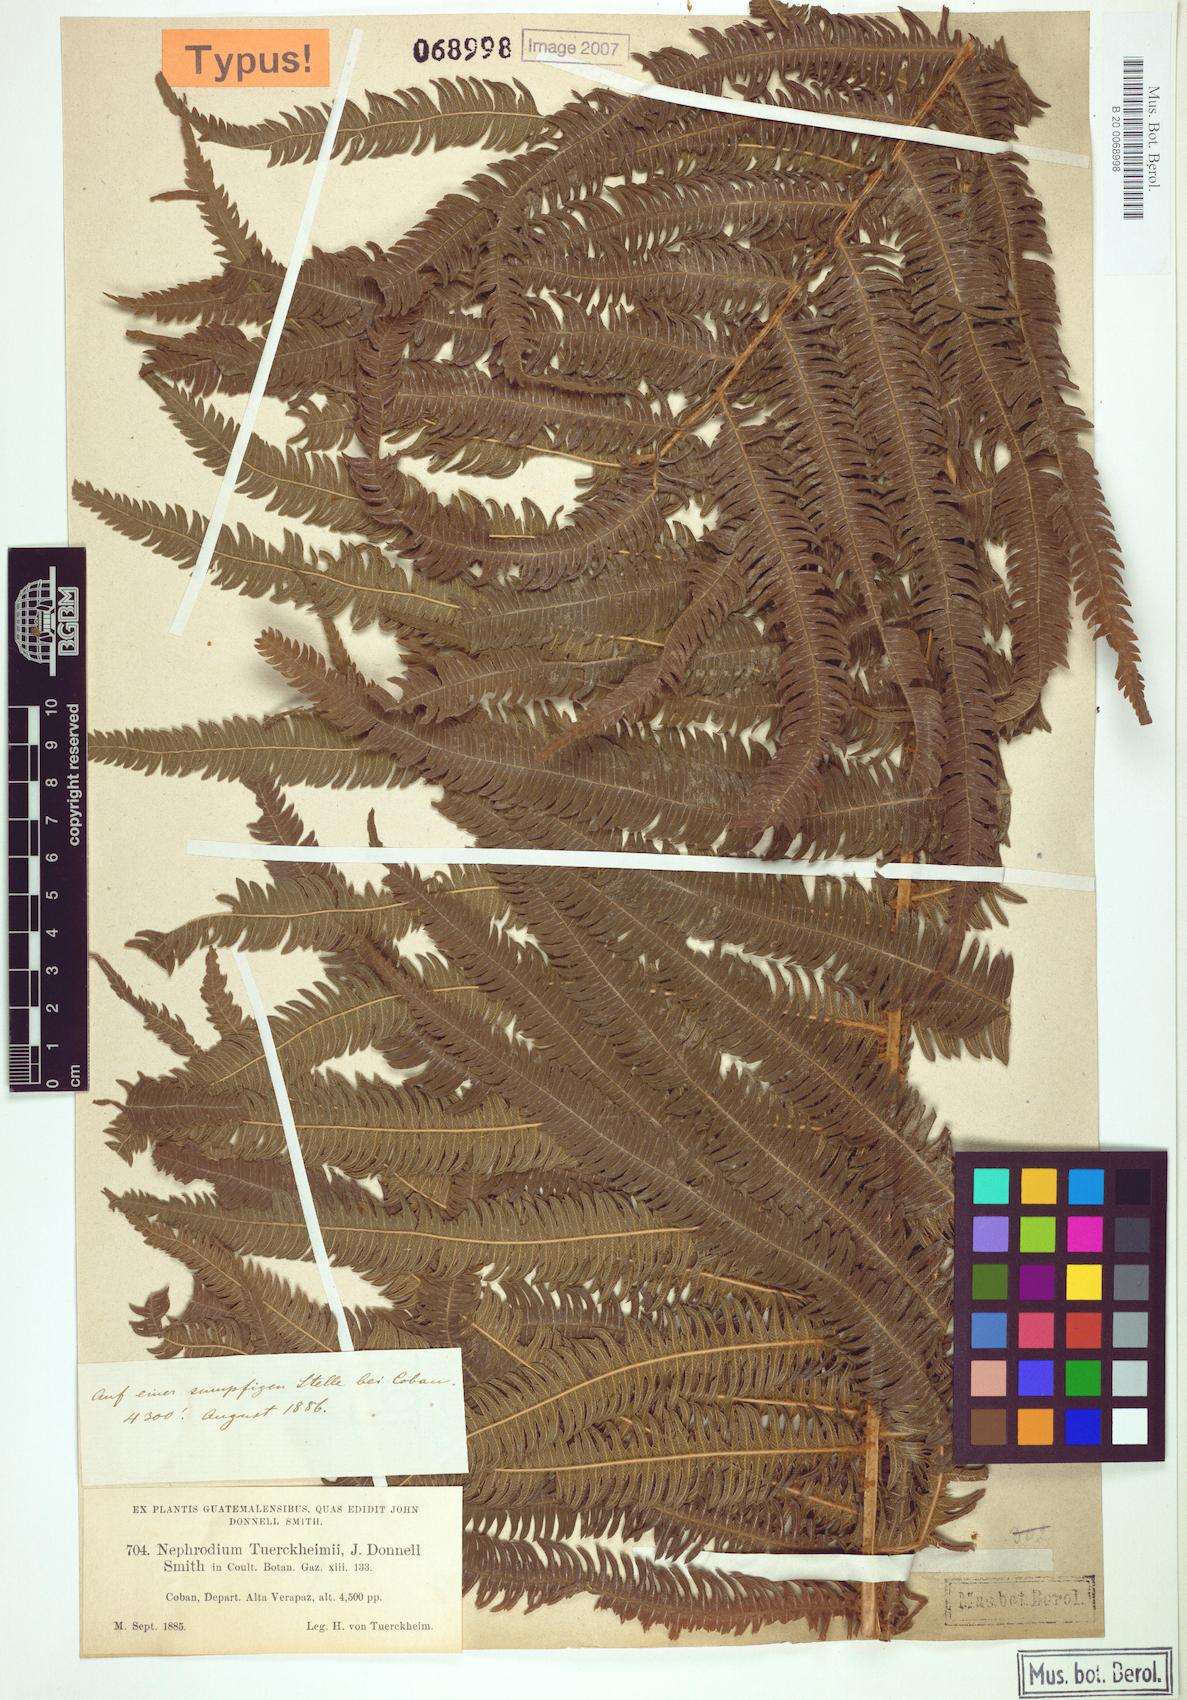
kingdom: Plantae
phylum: Tracheophyta
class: Polypodiopsida
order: Polypodiales
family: Thelypteridaceae
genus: Pelazoneuron
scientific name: Pelazoneuron tuerckheimii
